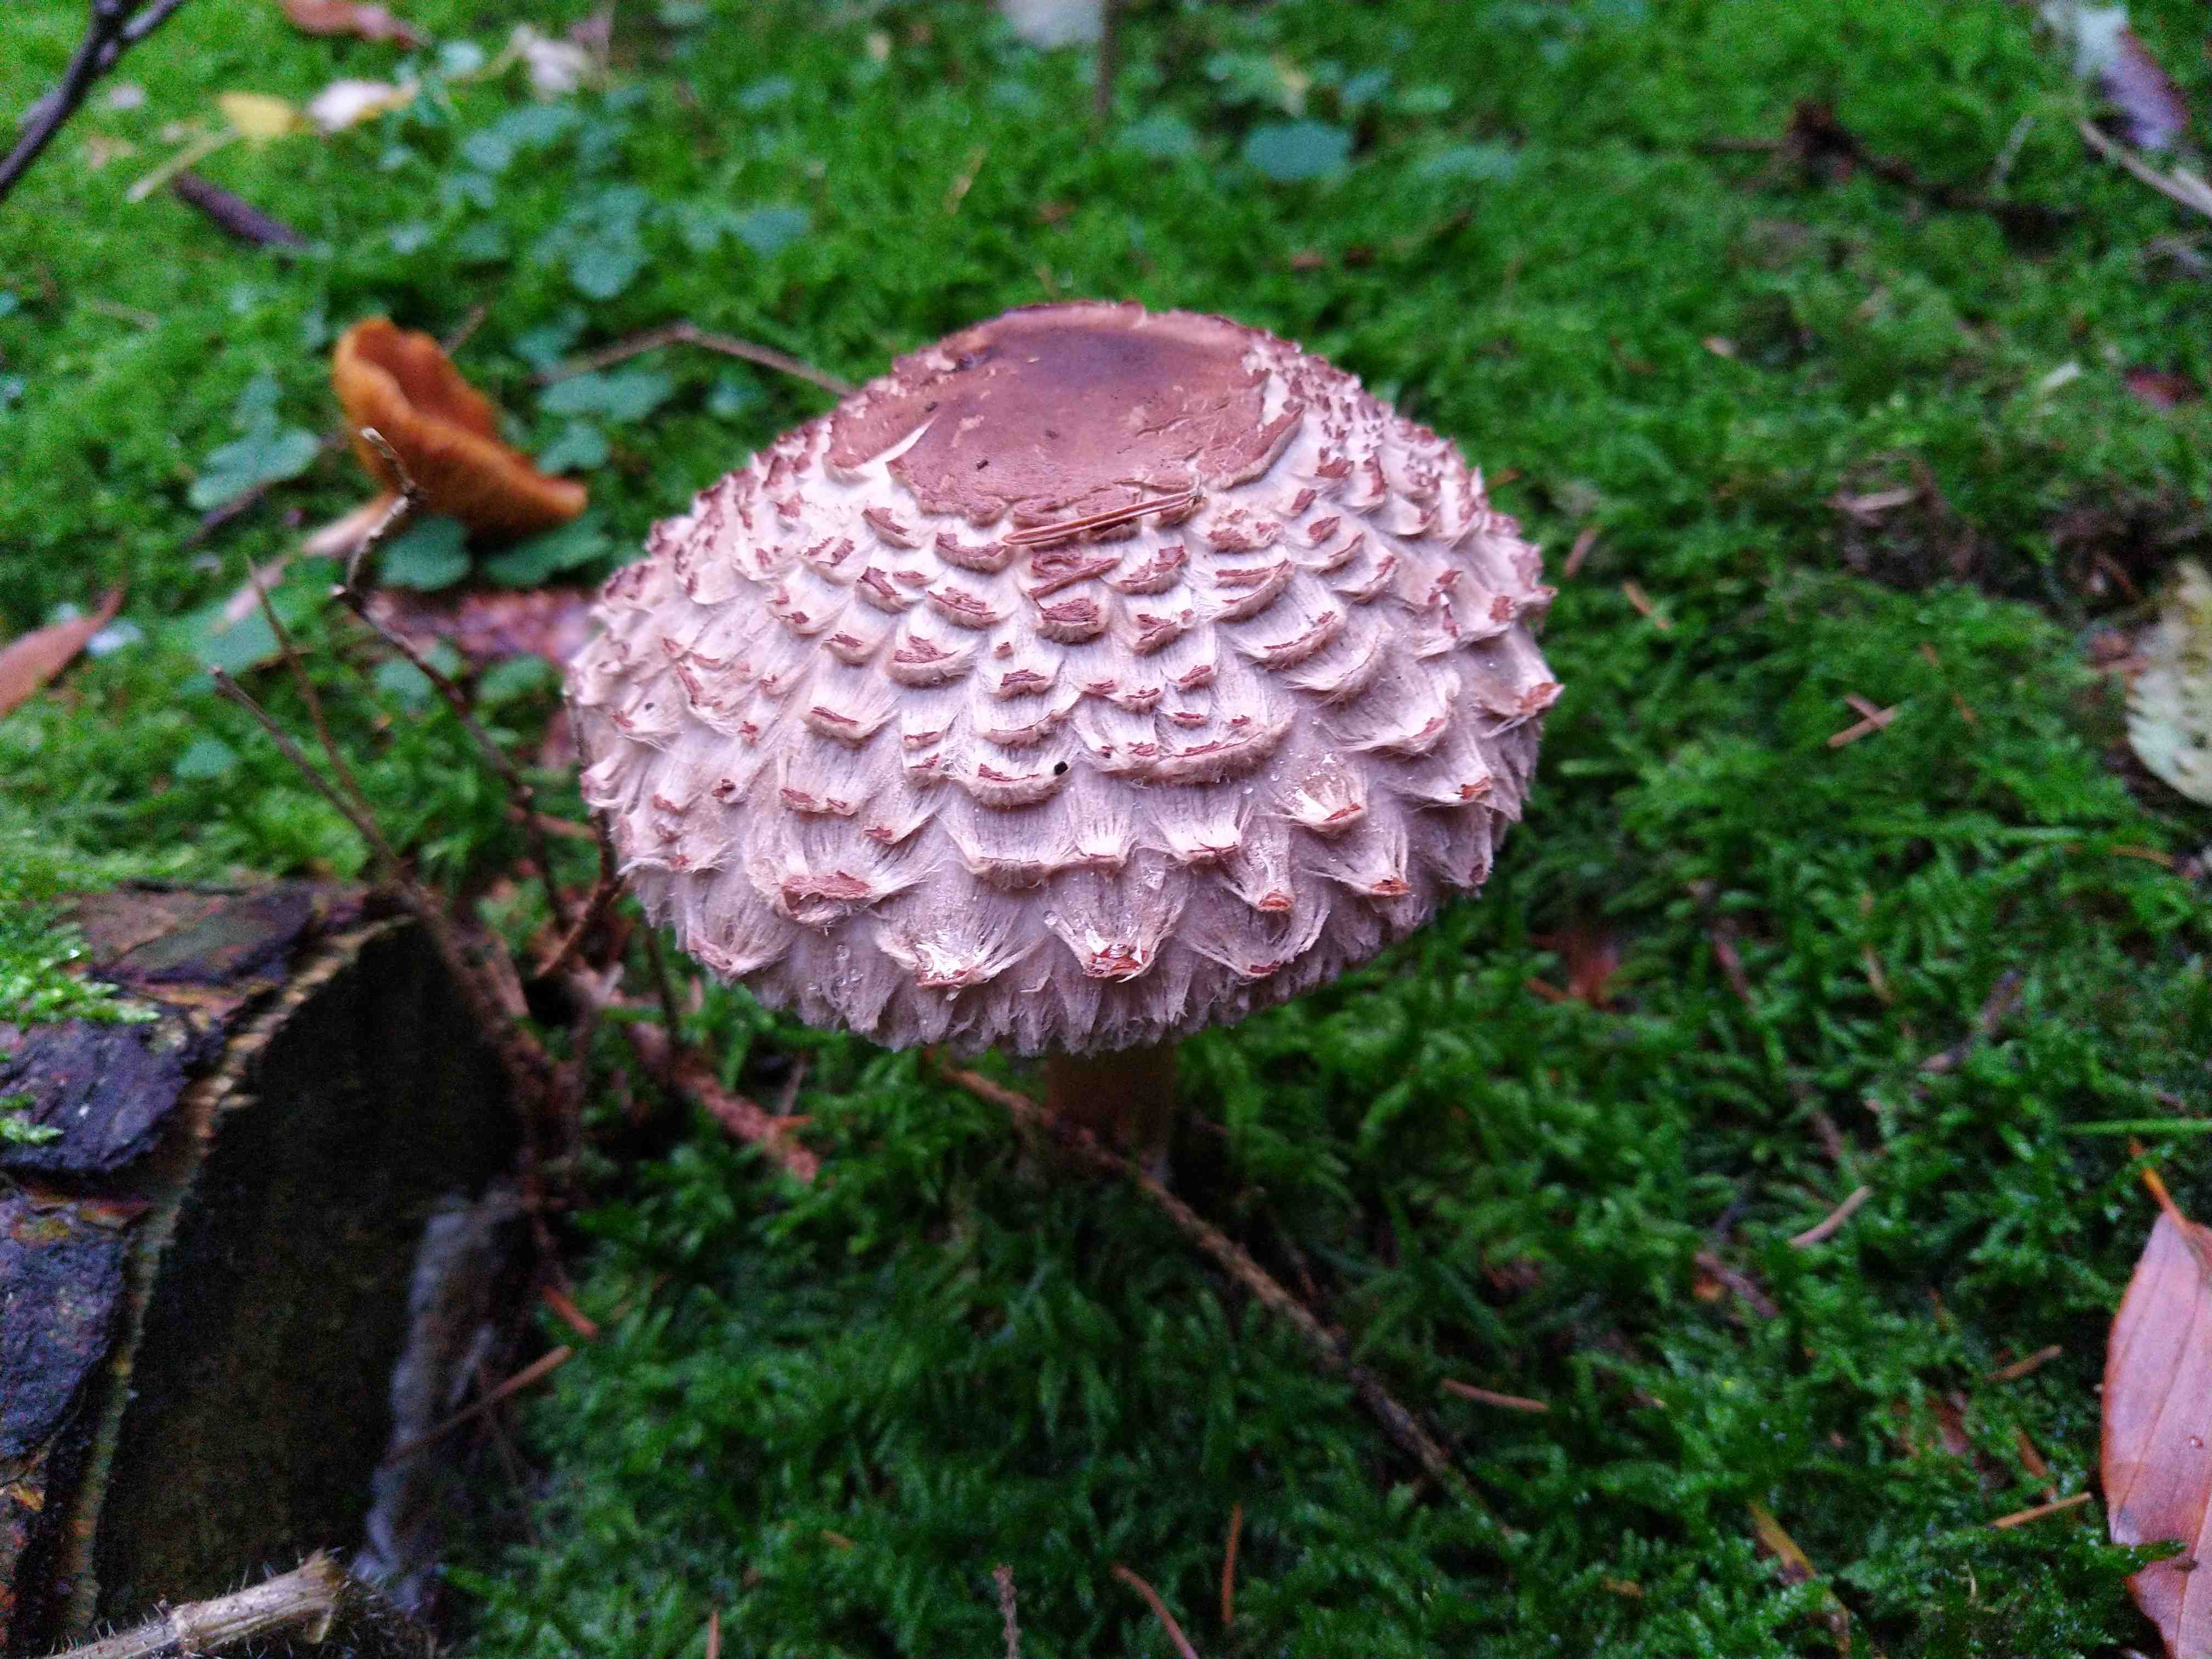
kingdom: Fungi
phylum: Basidiomycota
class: Agaricomycetes
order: Agaricales
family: Agaricaceae
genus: Chlorophyllum
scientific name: Chlorophyllum olivieri
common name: almindelig rabarberhat
